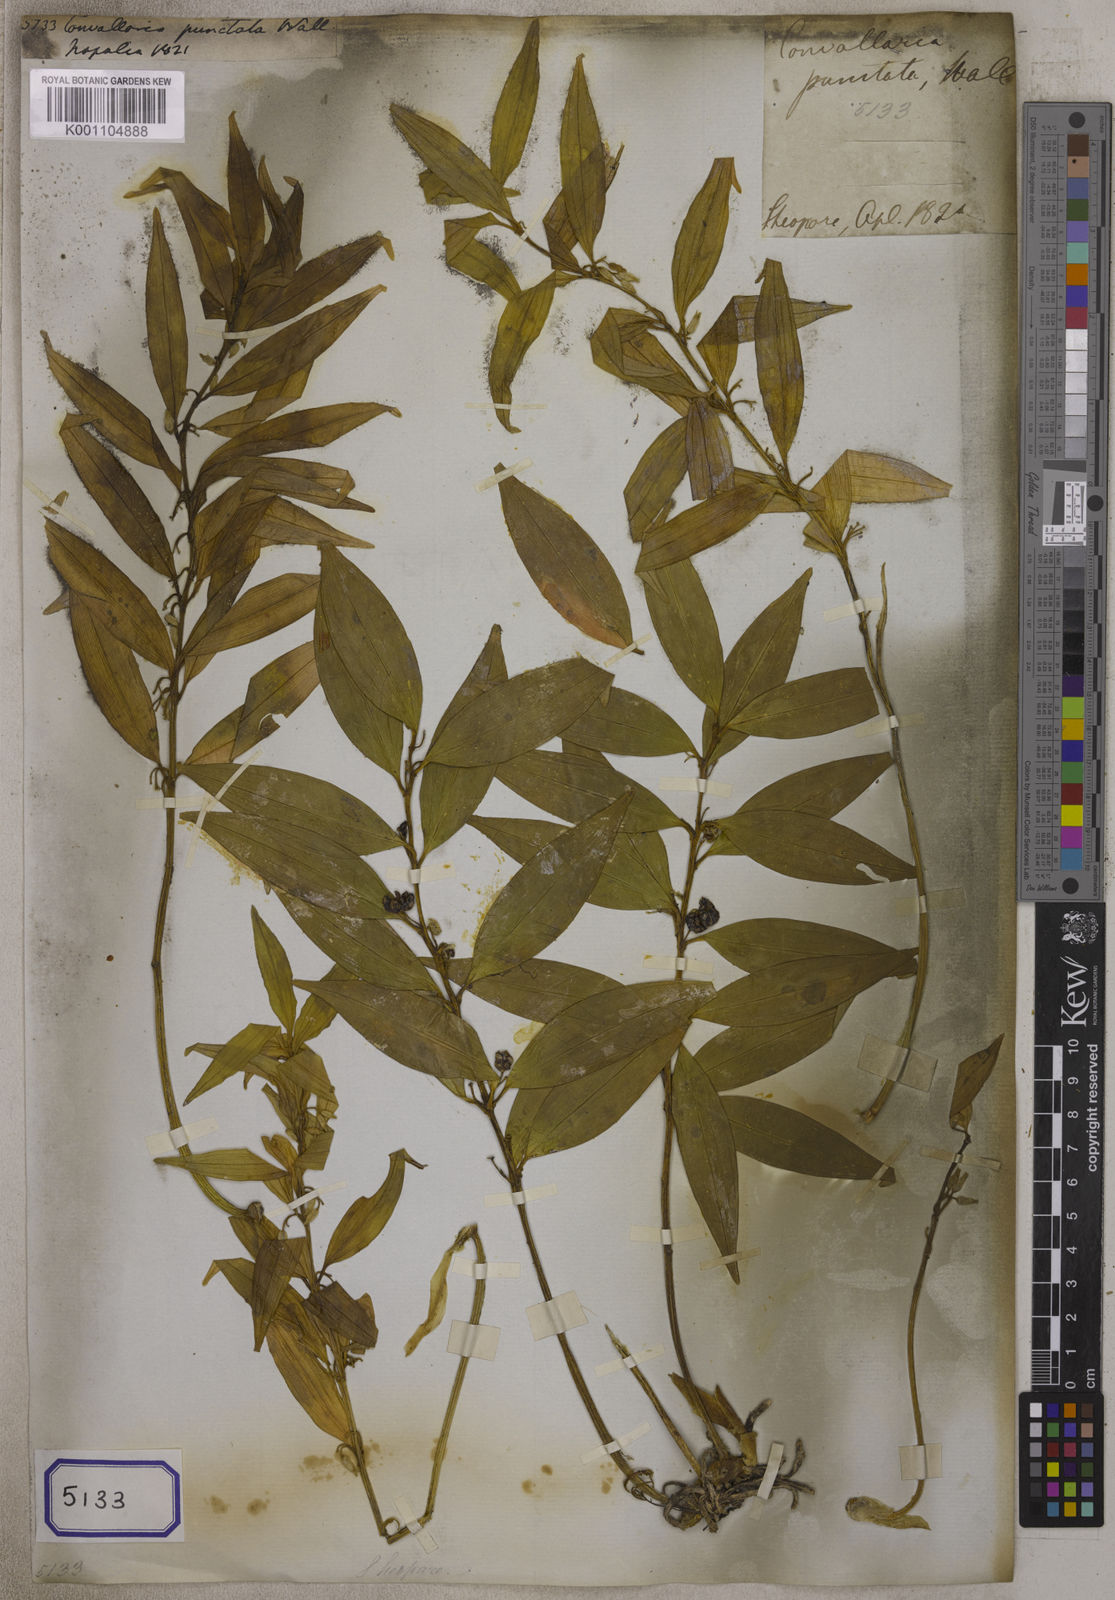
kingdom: Plantae
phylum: Tracheophyta
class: Liliopsida
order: Asparagales
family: Asparagaceae
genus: Polygonatum
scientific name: Polygonatum punctatum
